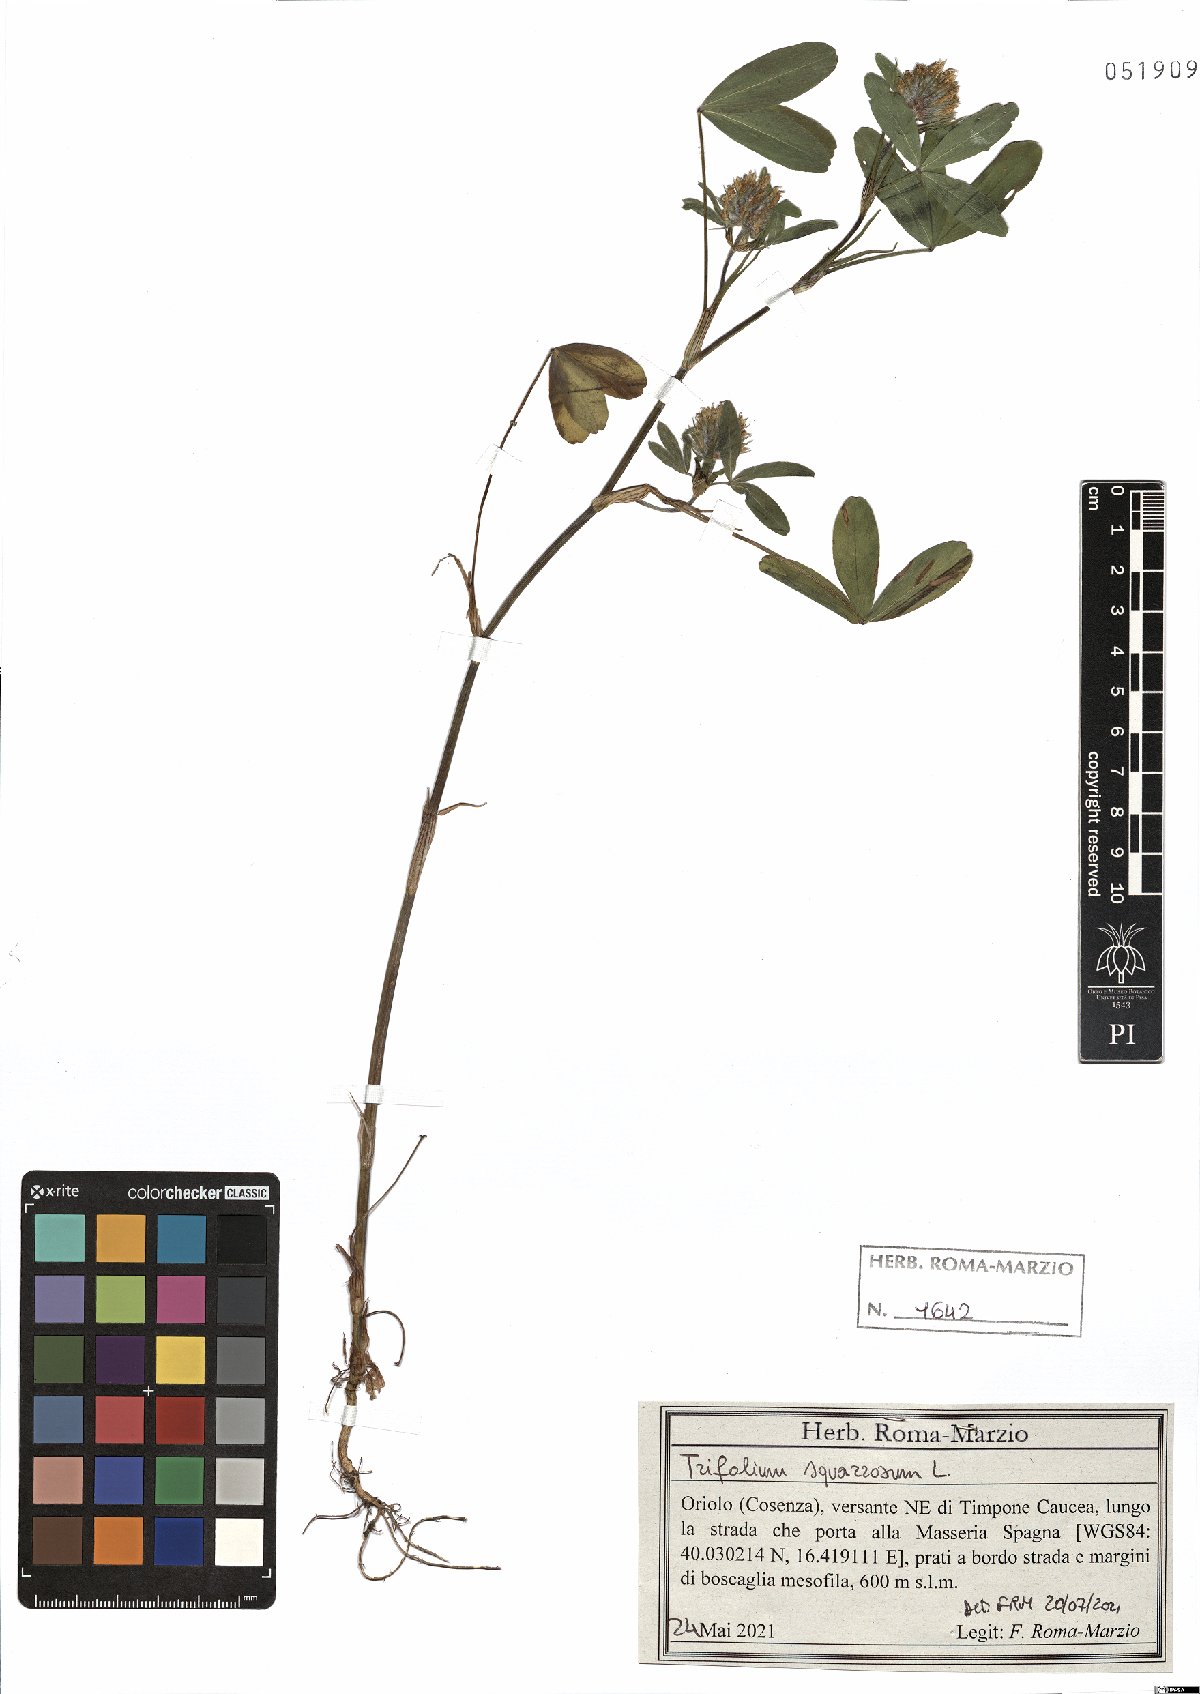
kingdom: Plantae
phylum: Tracheophyta
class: Magnoliopsida
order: Fabales
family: Fabaceae
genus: Trifolium
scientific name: Trifolium squarrosum
